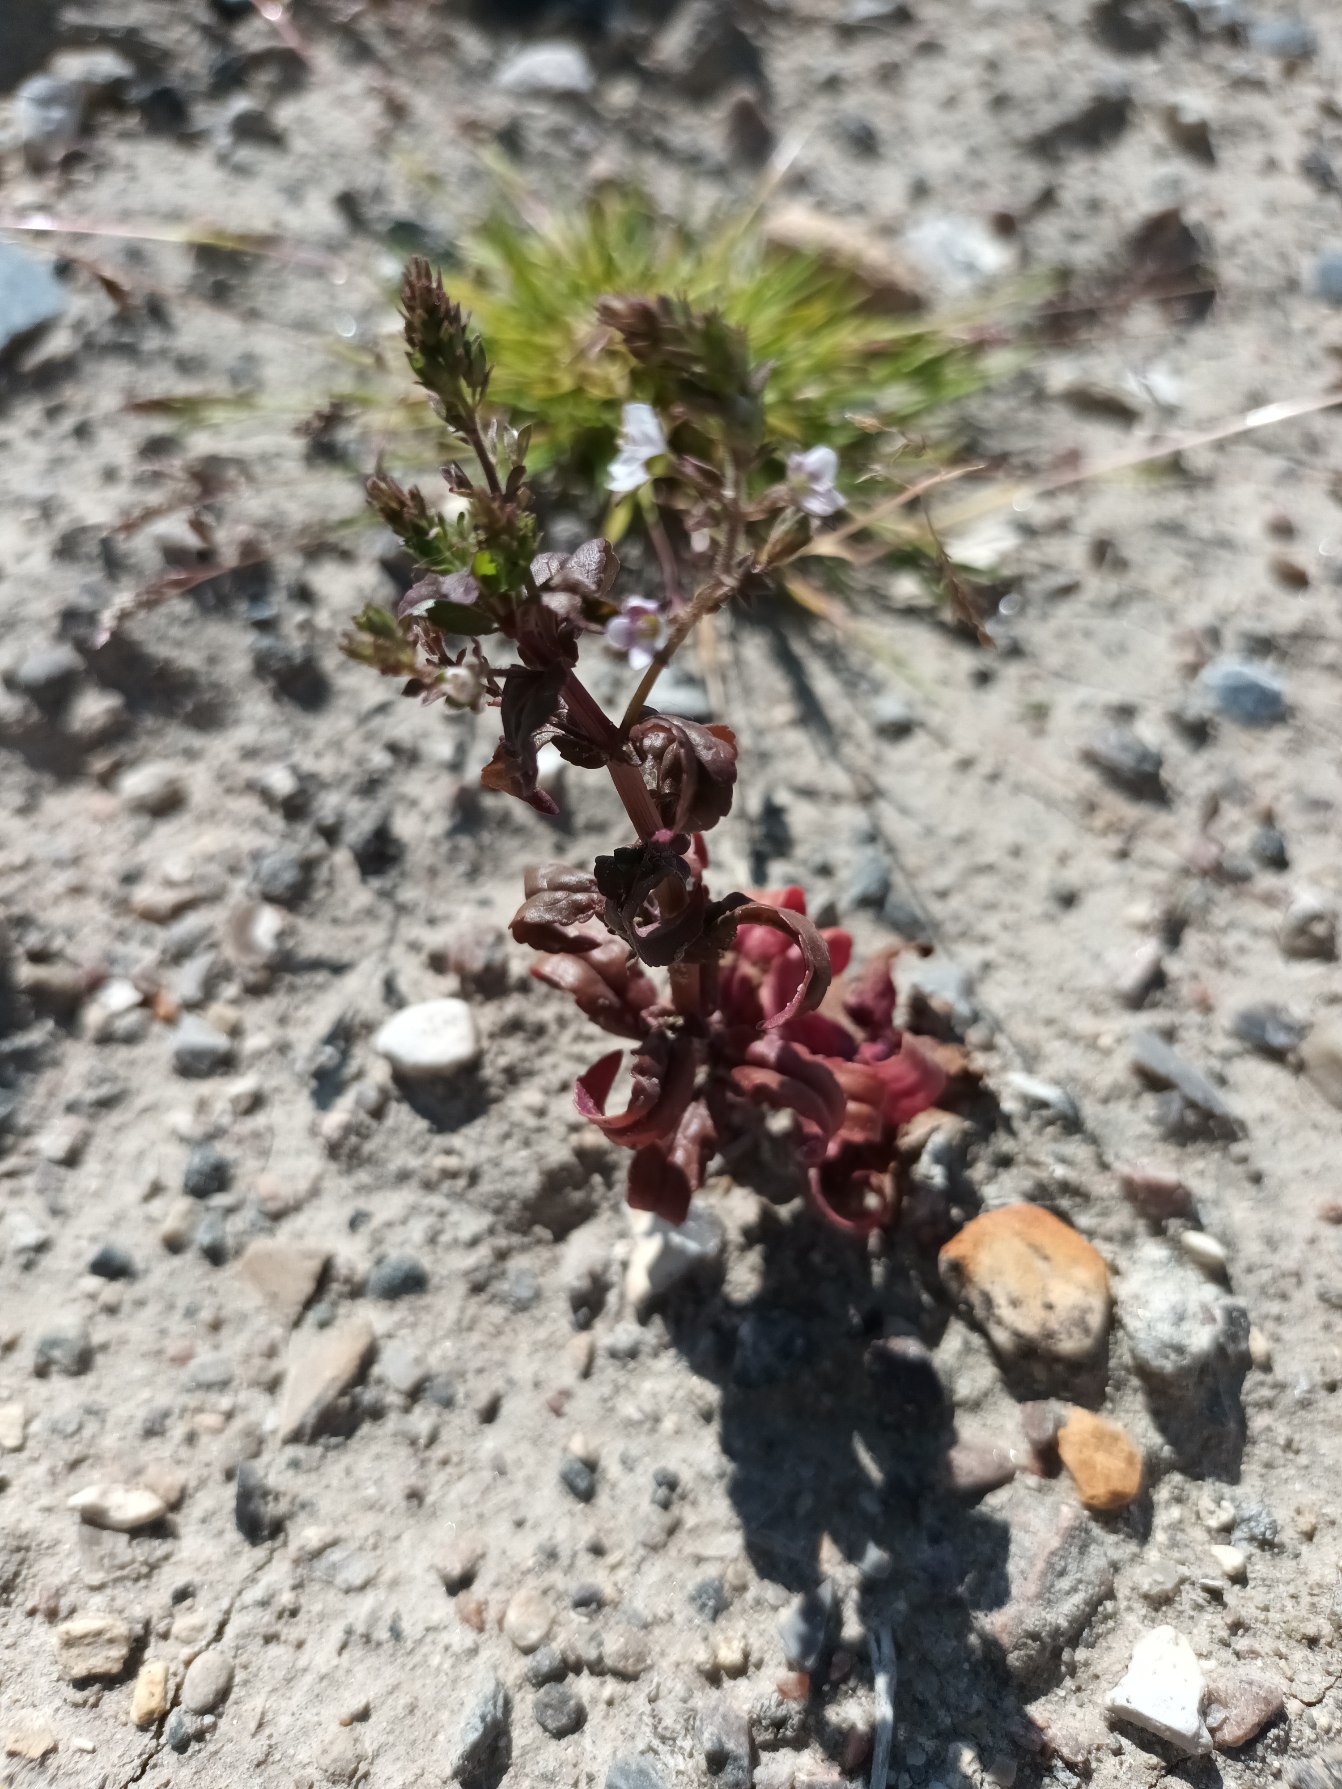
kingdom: Plantae
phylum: Tracheophyta
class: Magnoliopsida
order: Lamiales
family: Plantaginaceae
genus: Veronica
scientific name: Veronica catenata
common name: Vand-ærenpris
